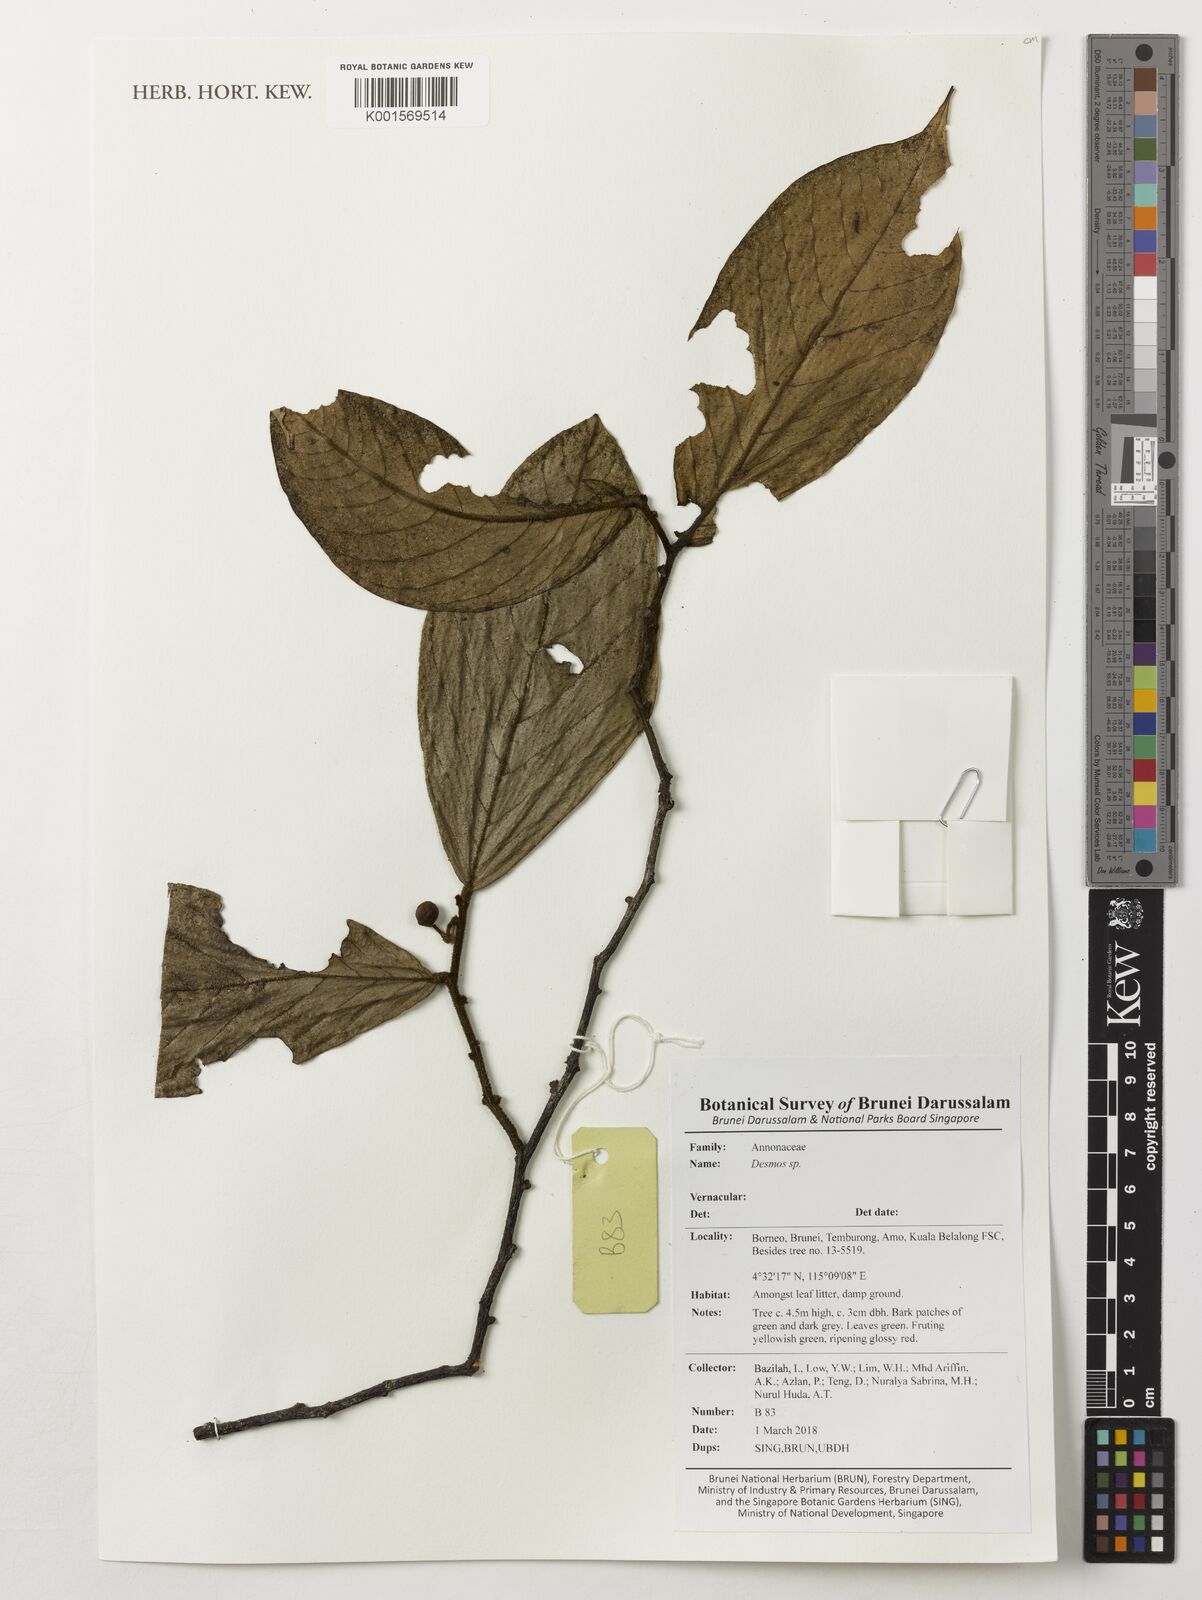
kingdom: Plantae
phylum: Tracheophyta
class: Magnoliopsida
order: Magnoliales
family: Annonaceae
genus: Desmos
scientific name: Desmos
